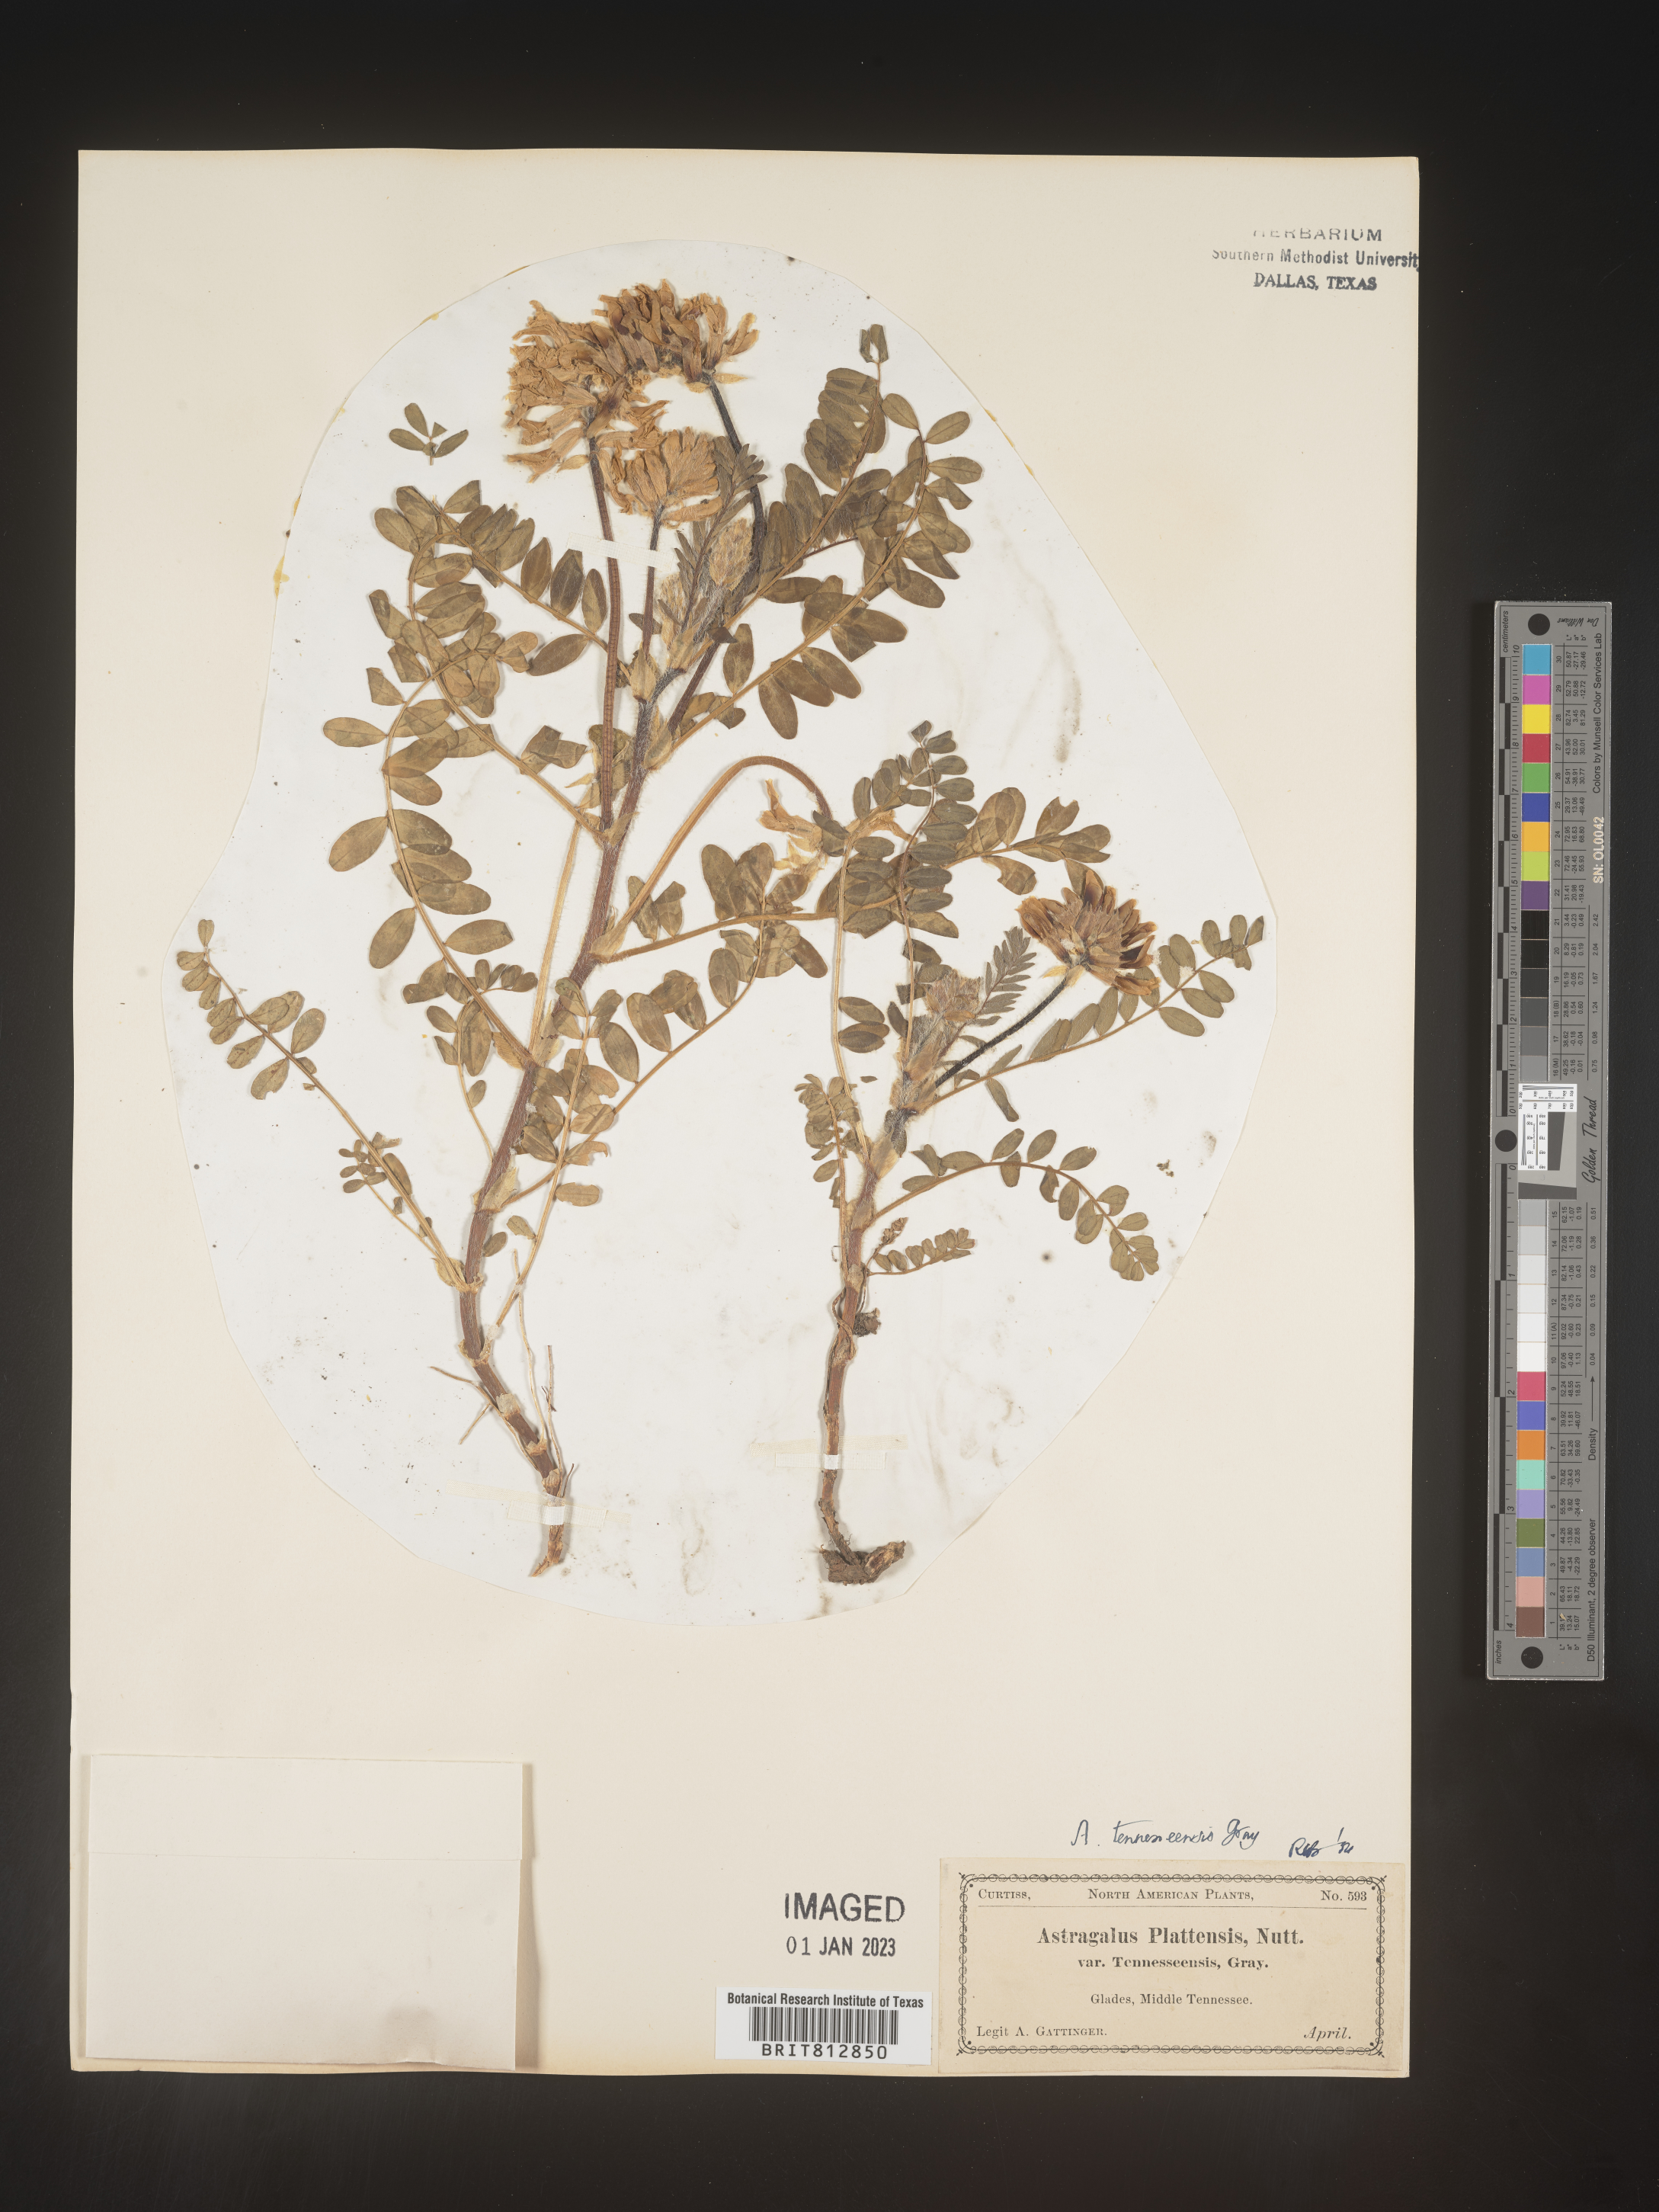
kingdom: Plantae
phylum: Tracheophyta
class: Magnoliopsida
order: Fabales
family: Fabaceae
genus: Astragalus
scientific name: Astragalus
